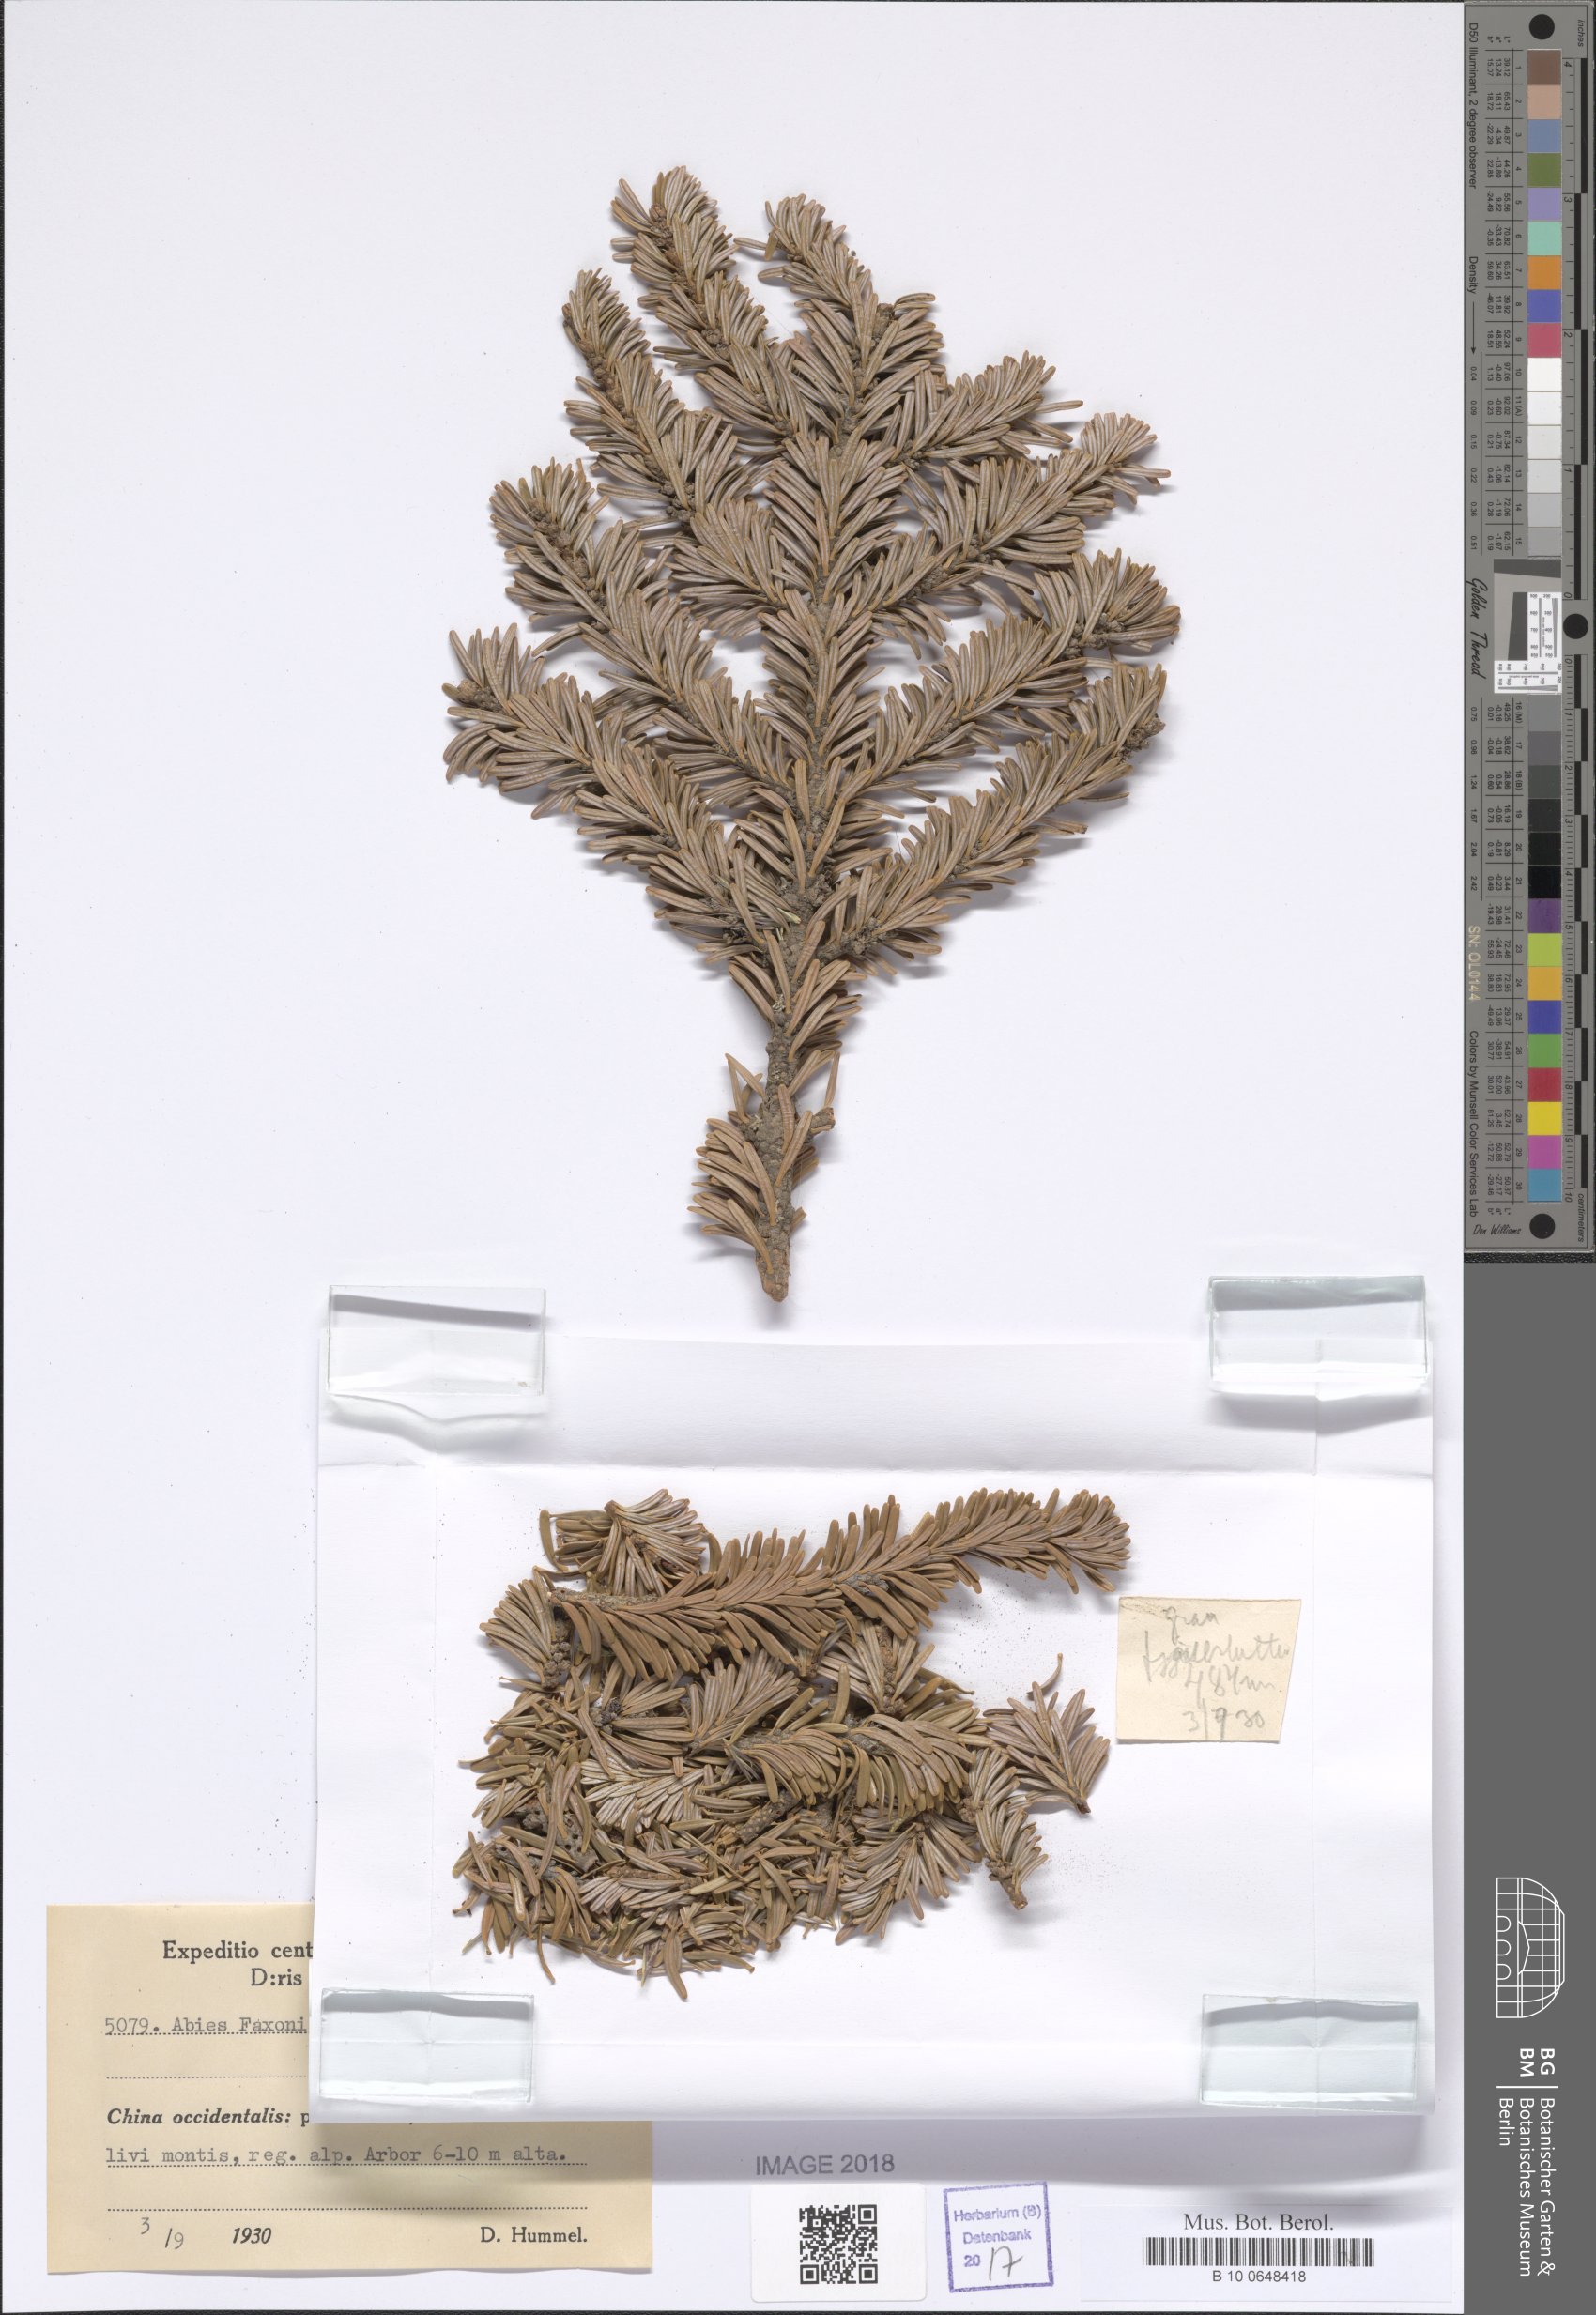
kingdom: Plantae
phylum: Tracheophyta
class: Pinopsida
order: Pinales
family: Pinaceae
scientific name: Pinaceae
